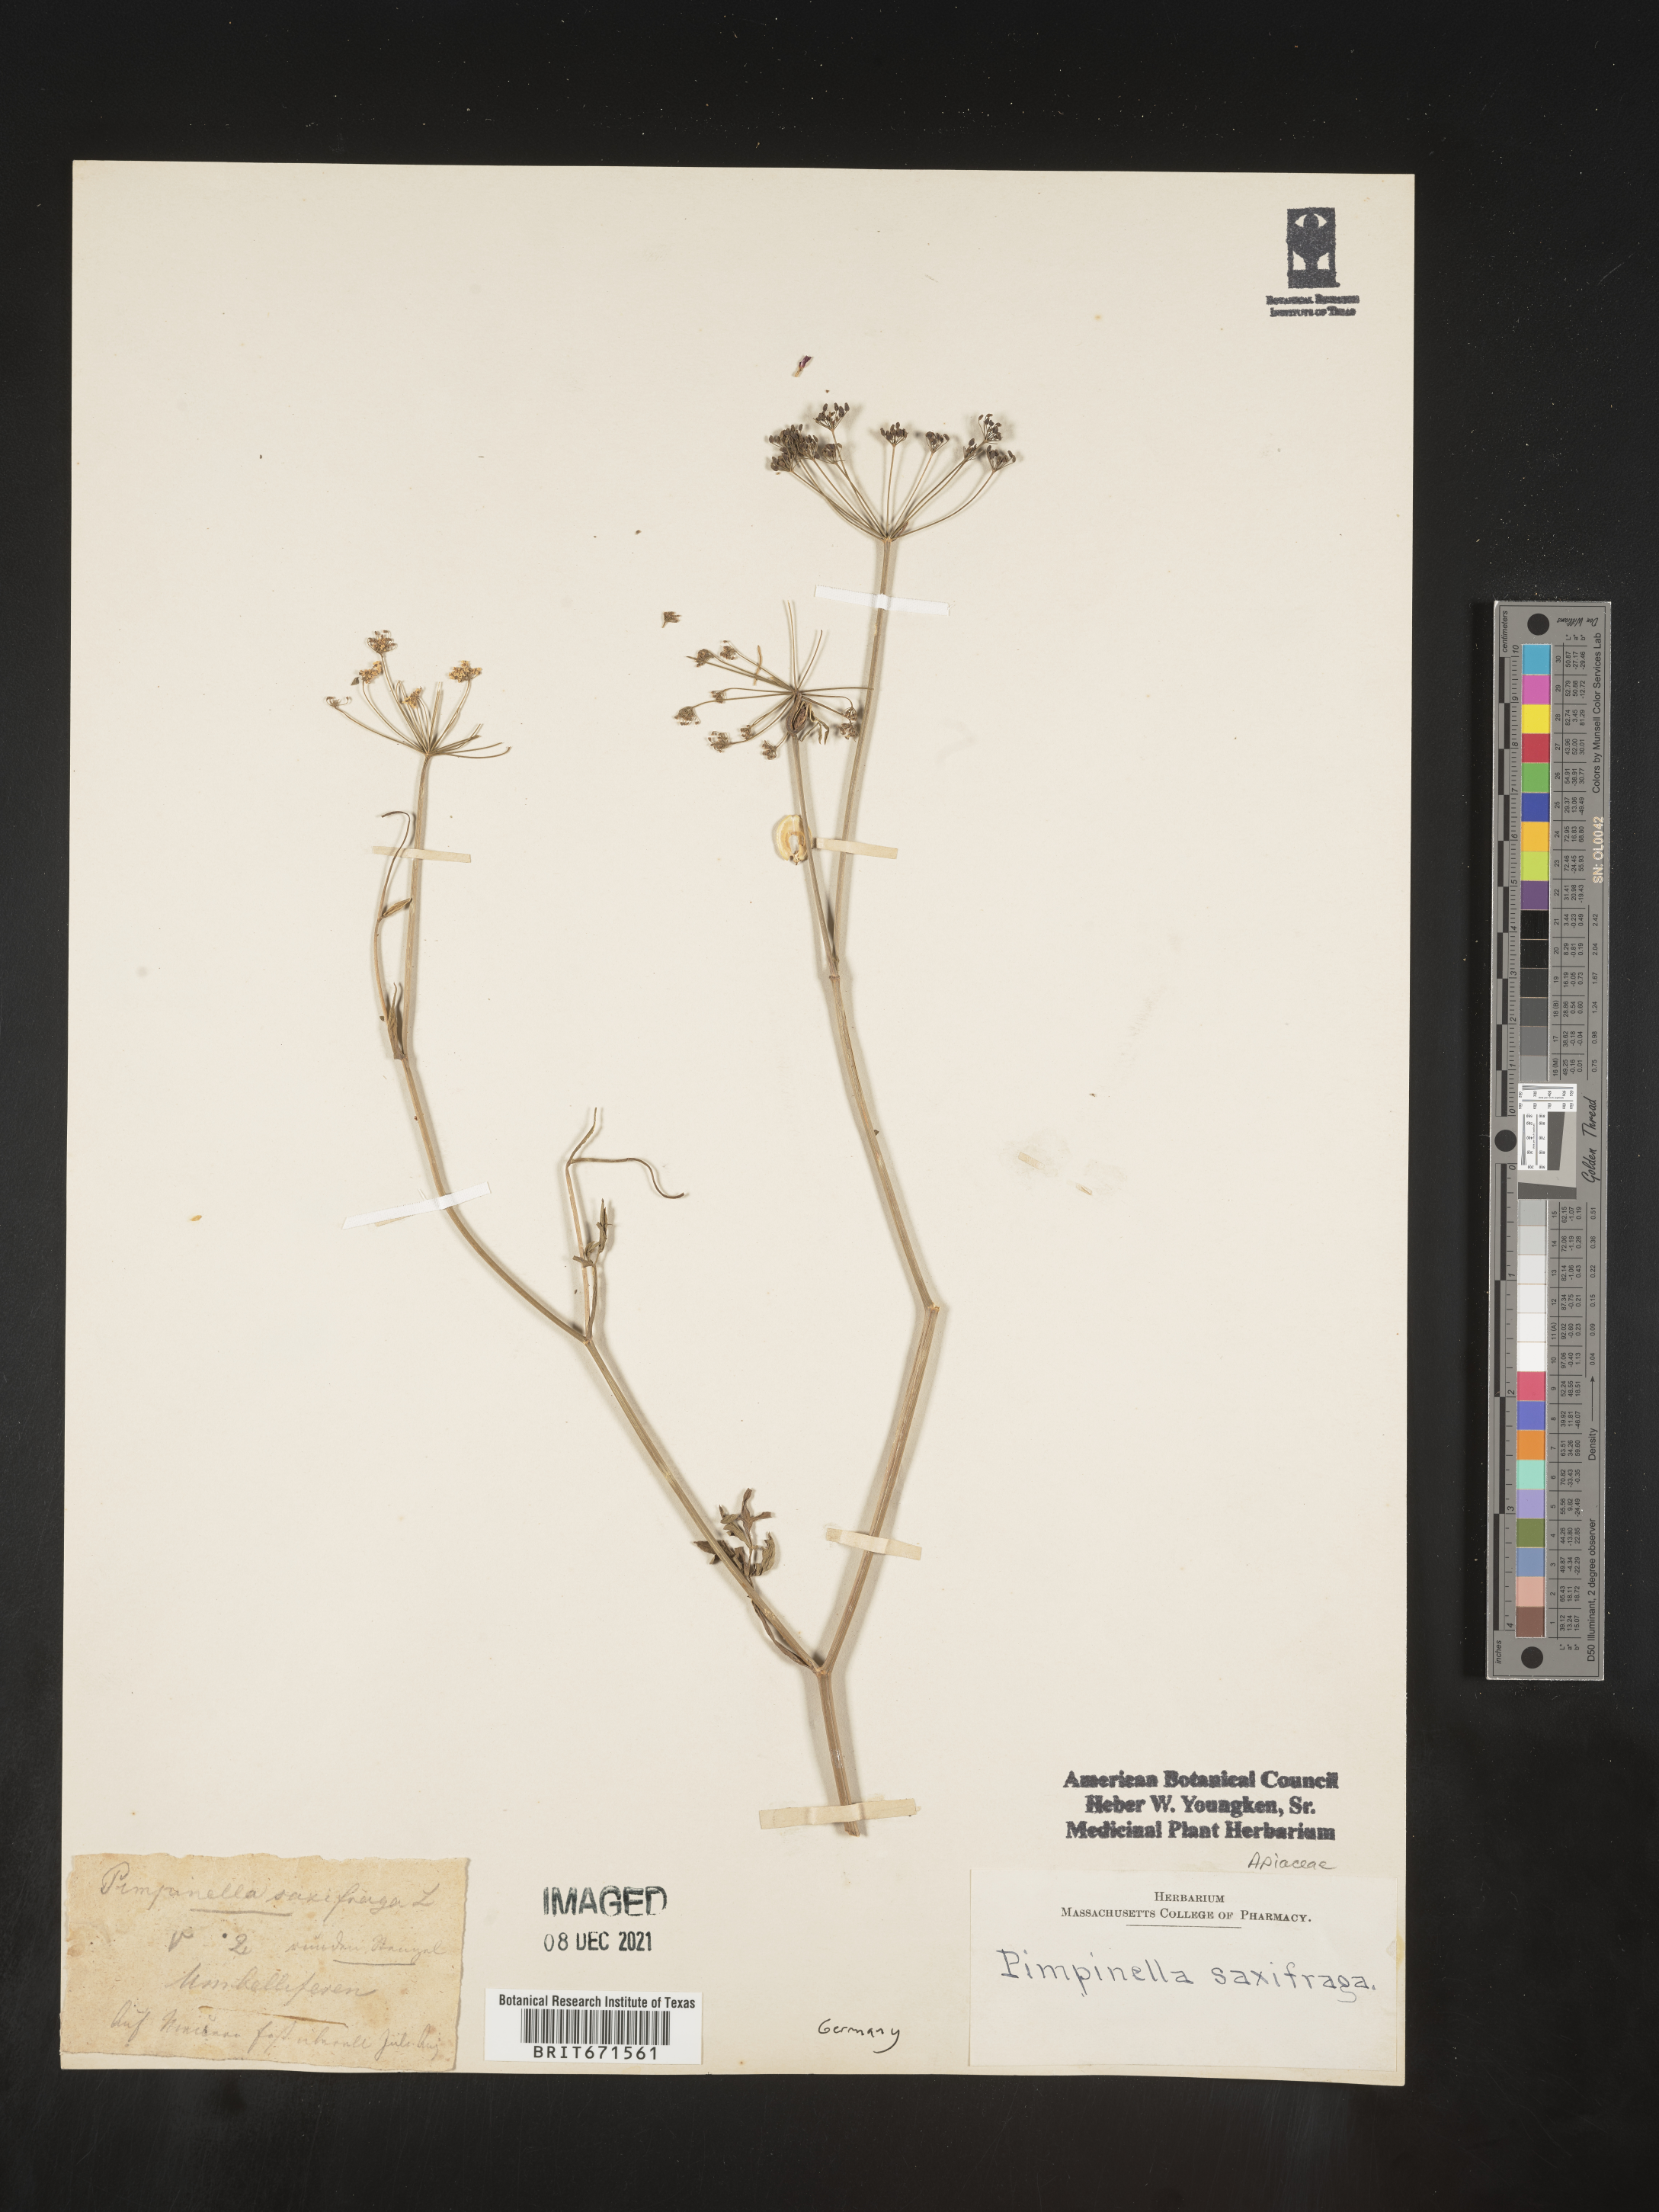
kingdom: Plantae
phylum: Tracheophyta
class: Magnoliopsida
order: Apiales
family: Apiaceae
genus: Pimpinella
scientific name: Pimpinella
